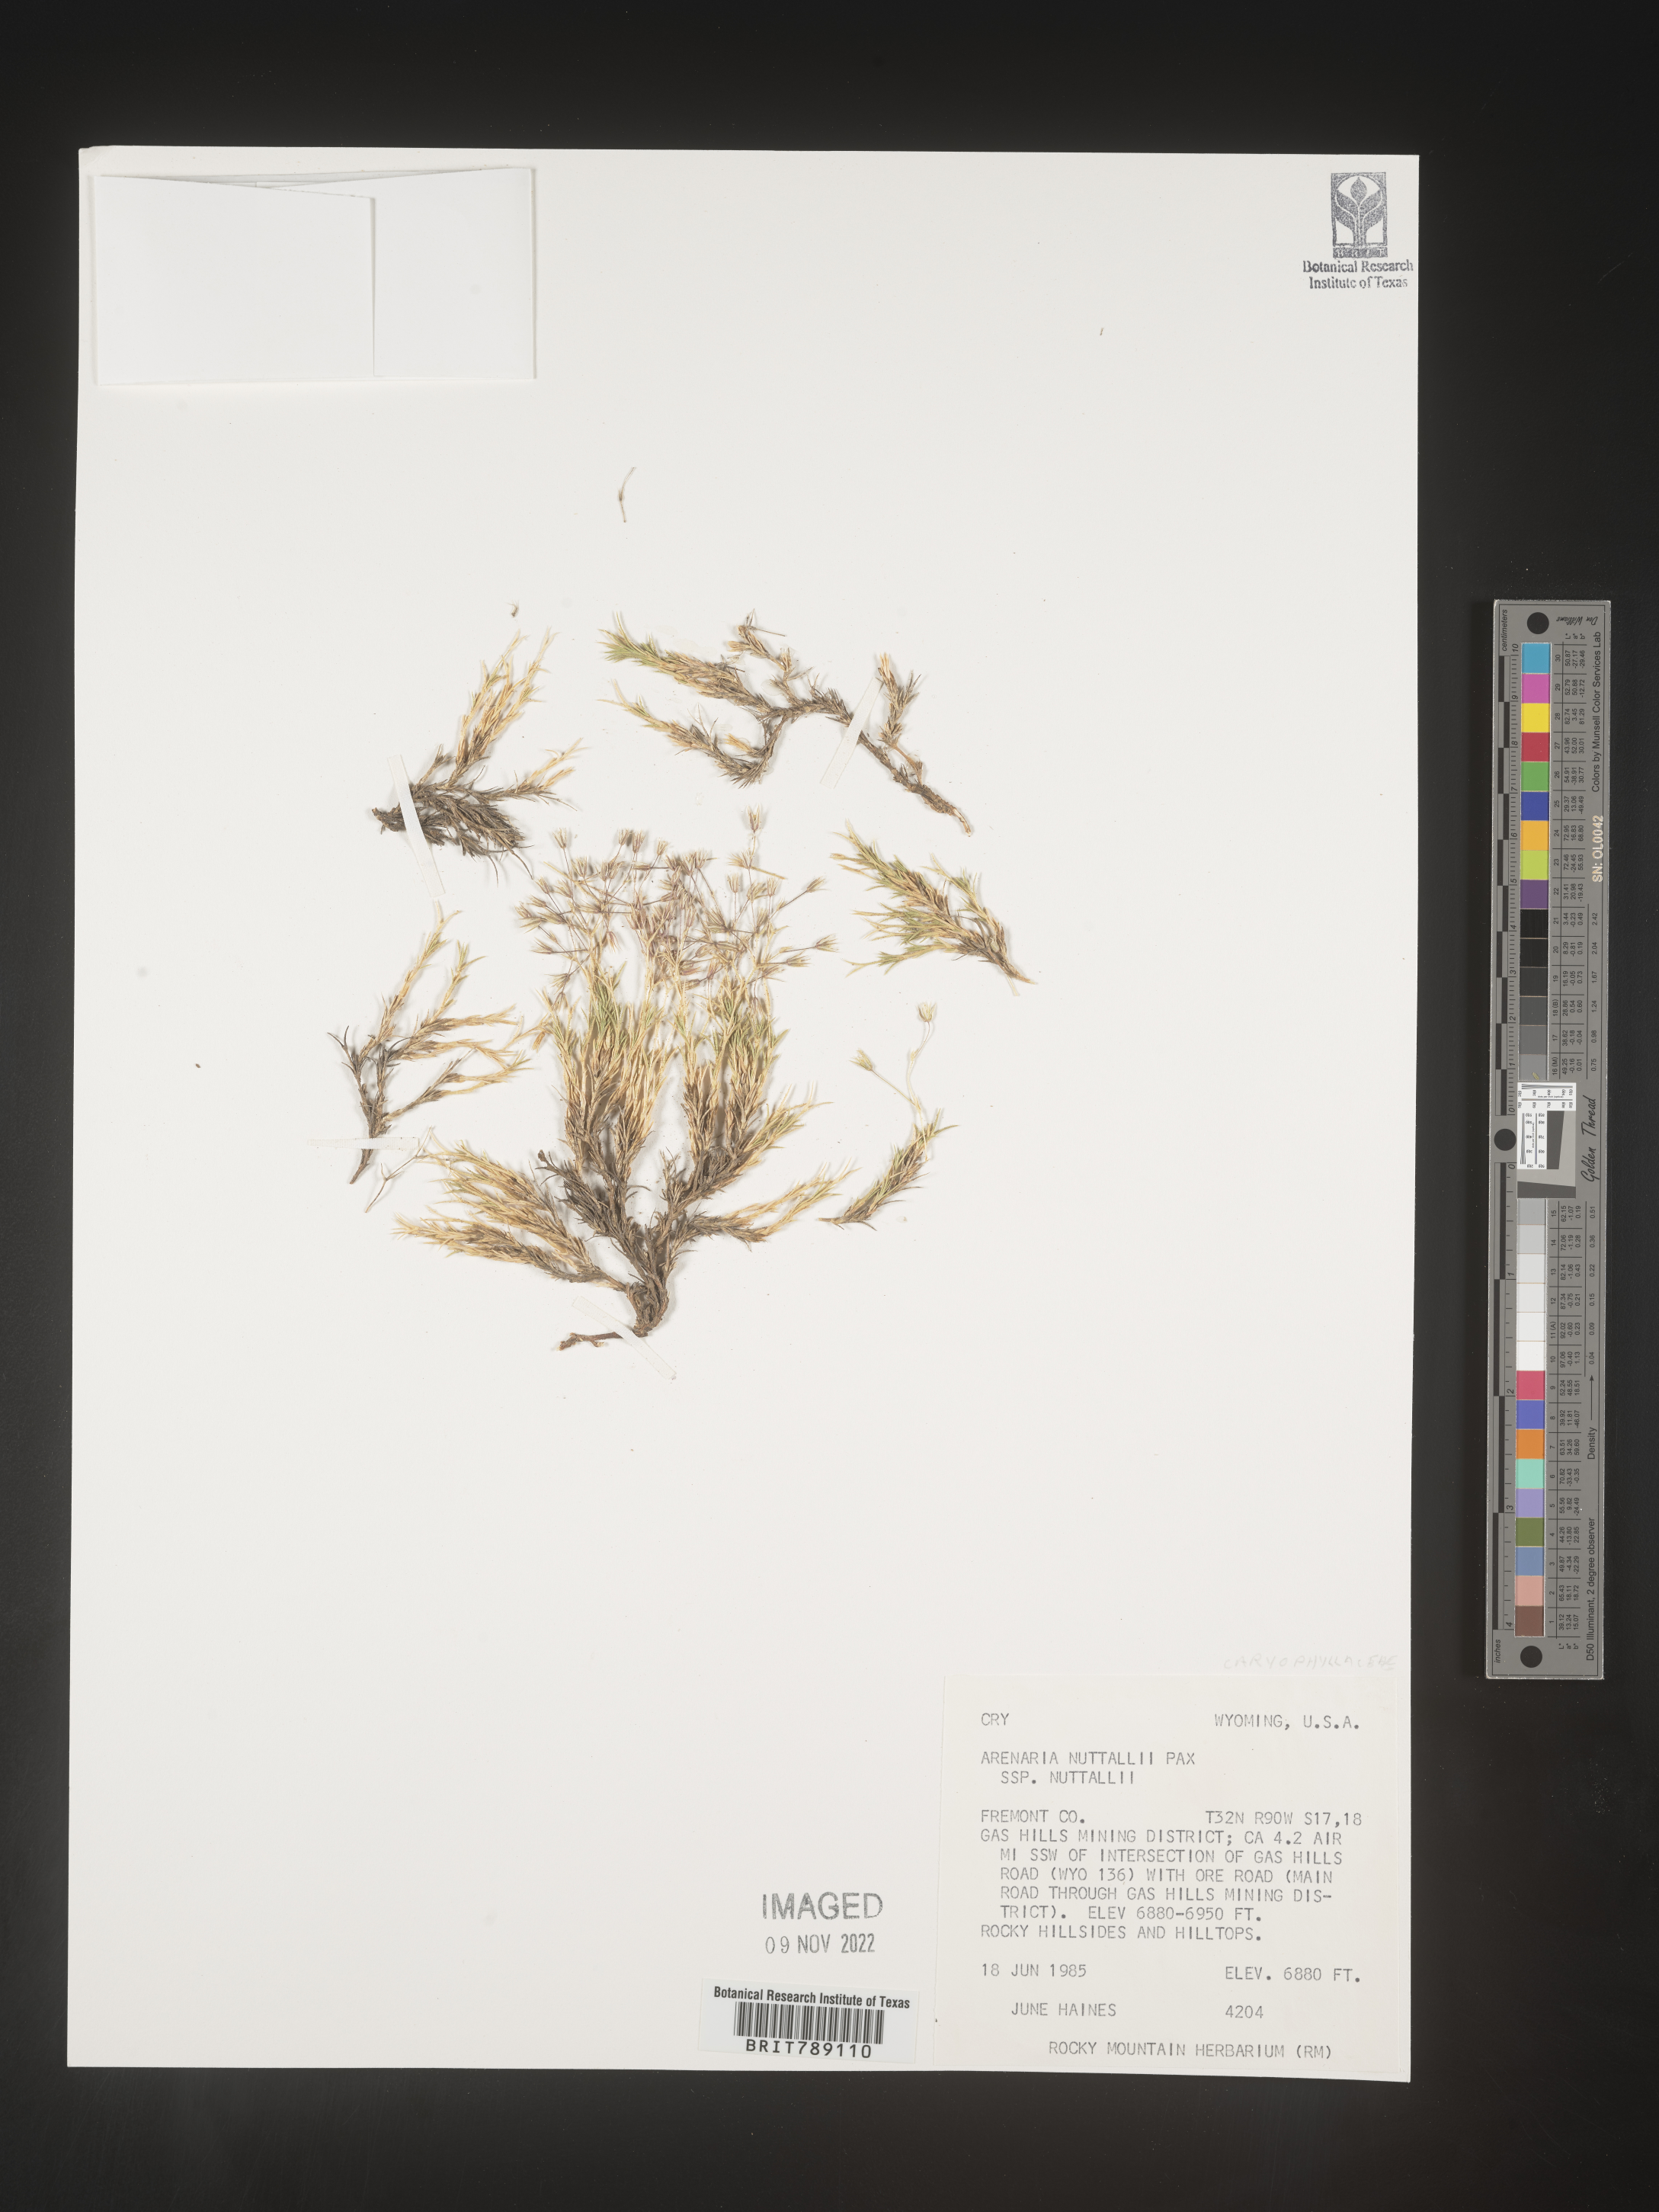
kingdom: Plantae
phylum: Tracheophyta
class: Magnoliopsida
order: Caryophyllales
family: Caryophyllaceae
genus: Arenaria
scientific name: Arenaria
